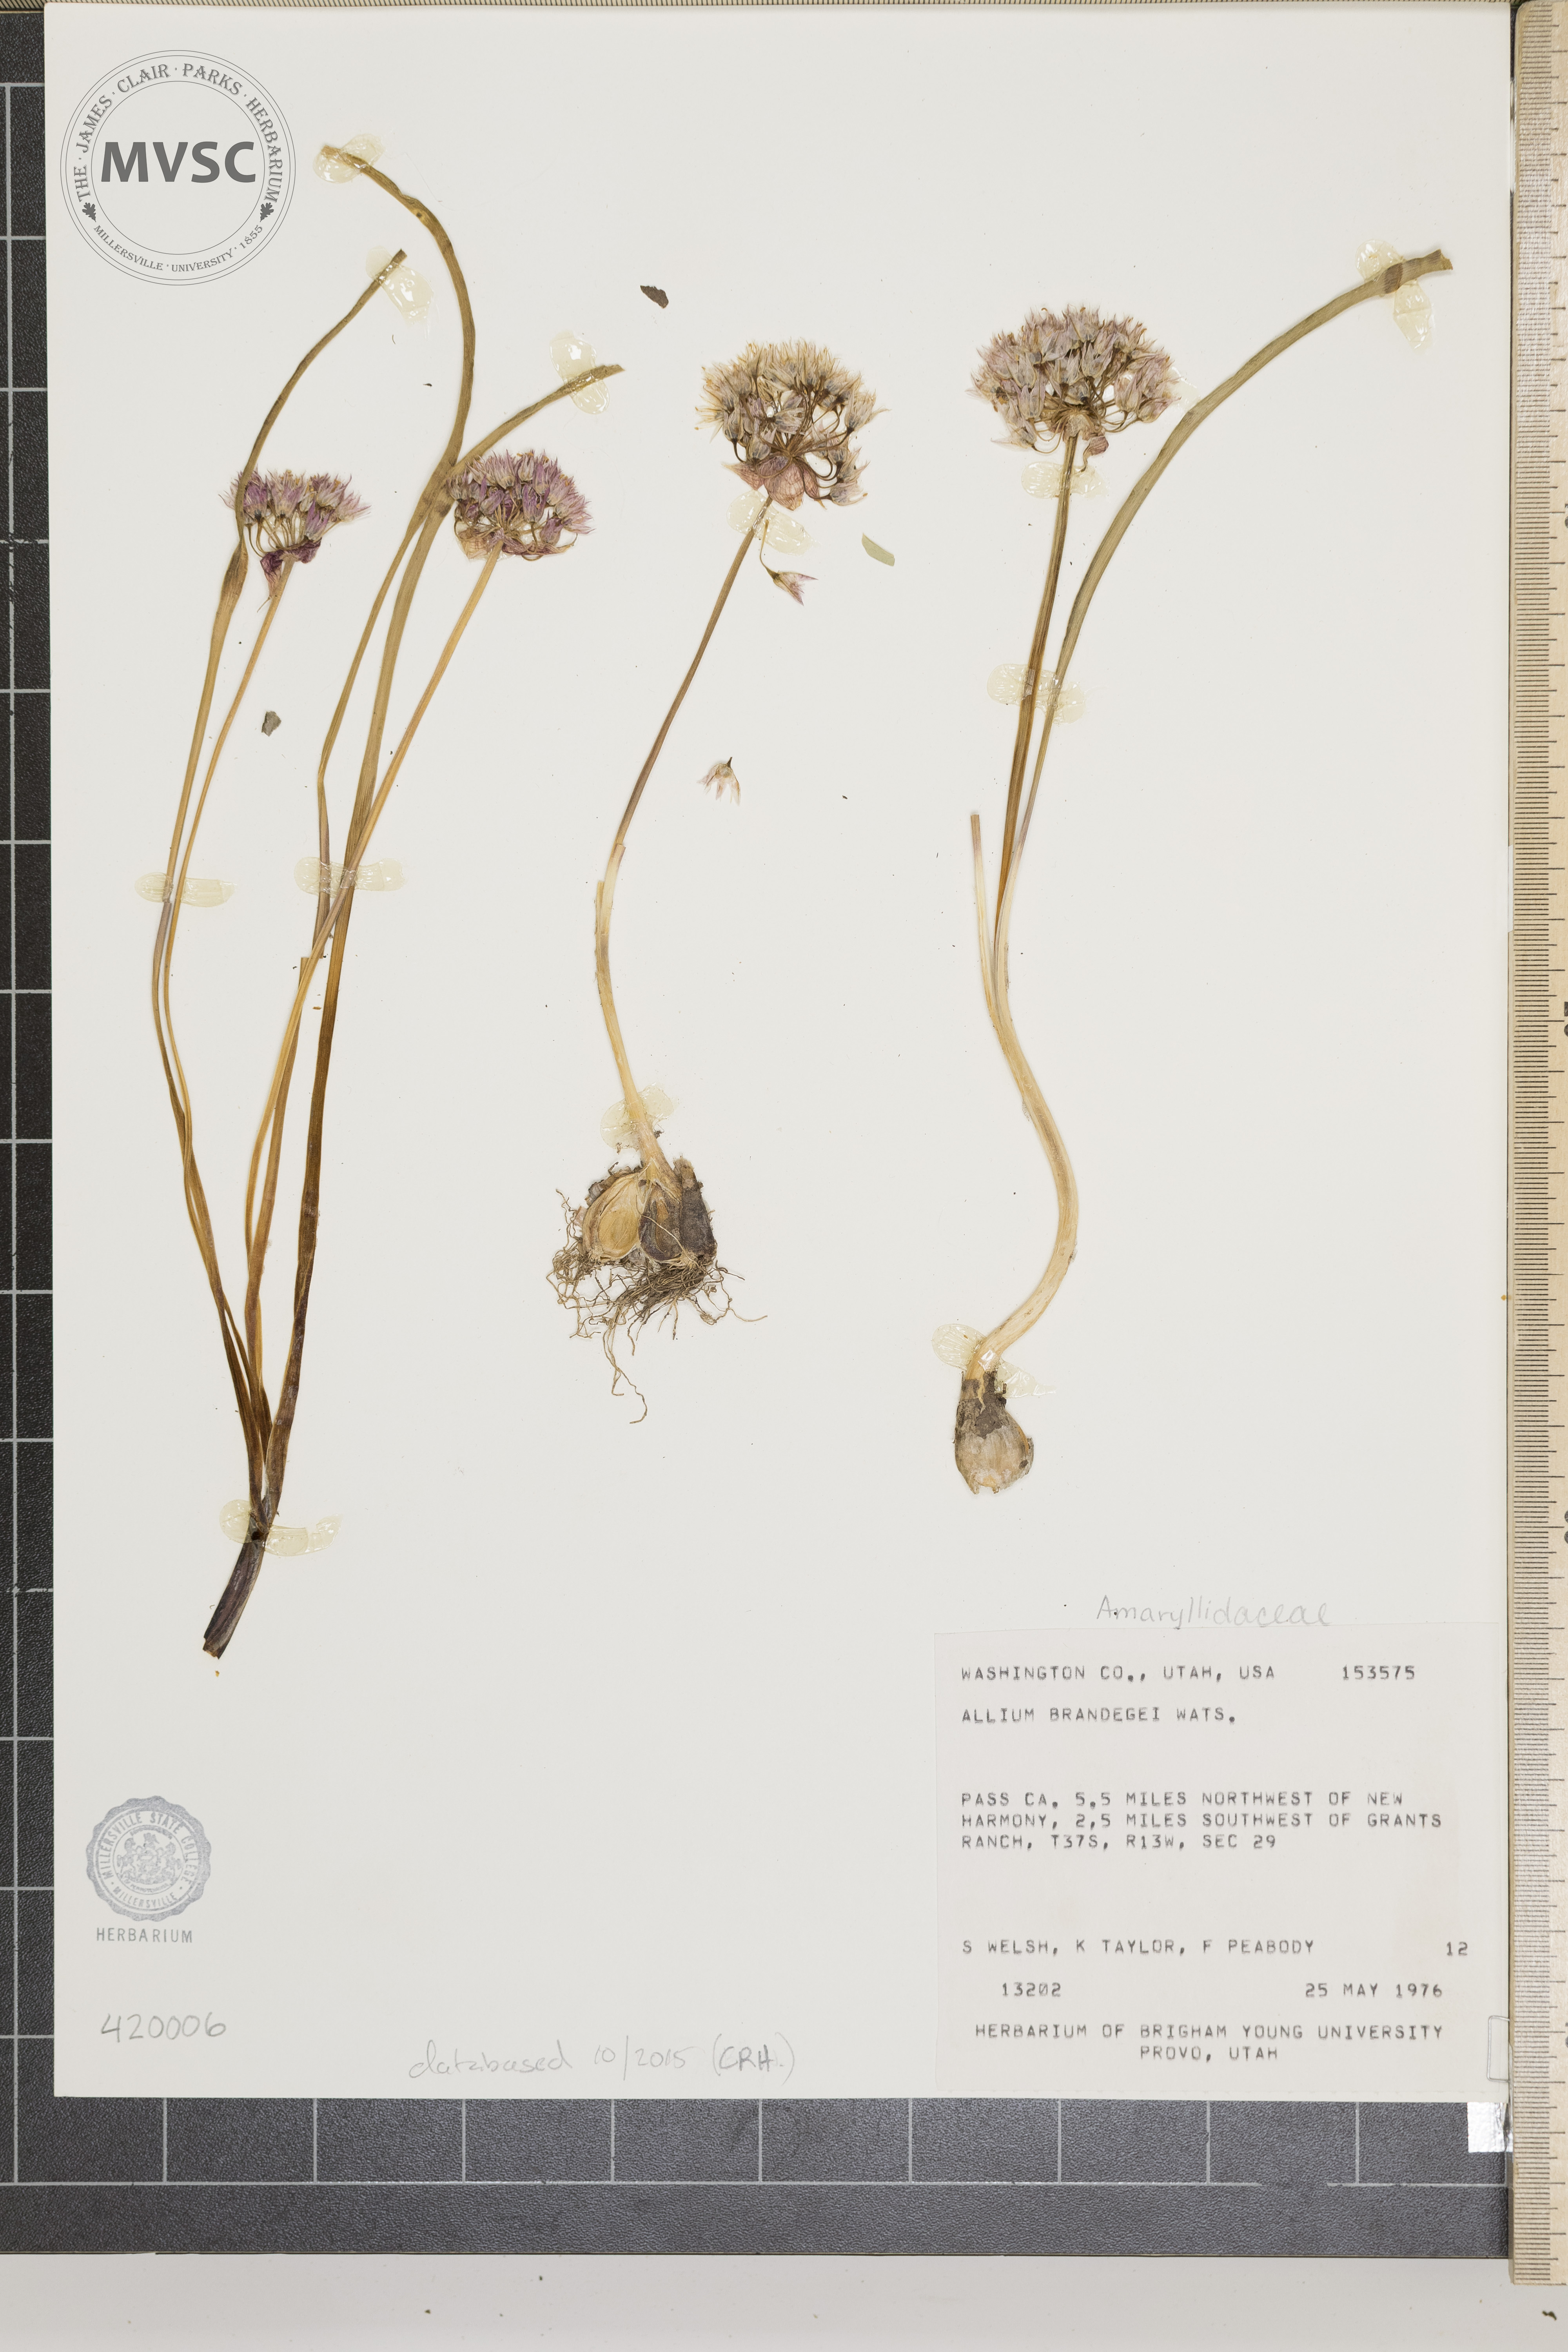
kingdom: Plantae
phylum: Tracheophyta
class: Liliopsida
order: Asparagales
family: Amaryllidaceae
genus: Allium
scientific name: Allium brandegeei
